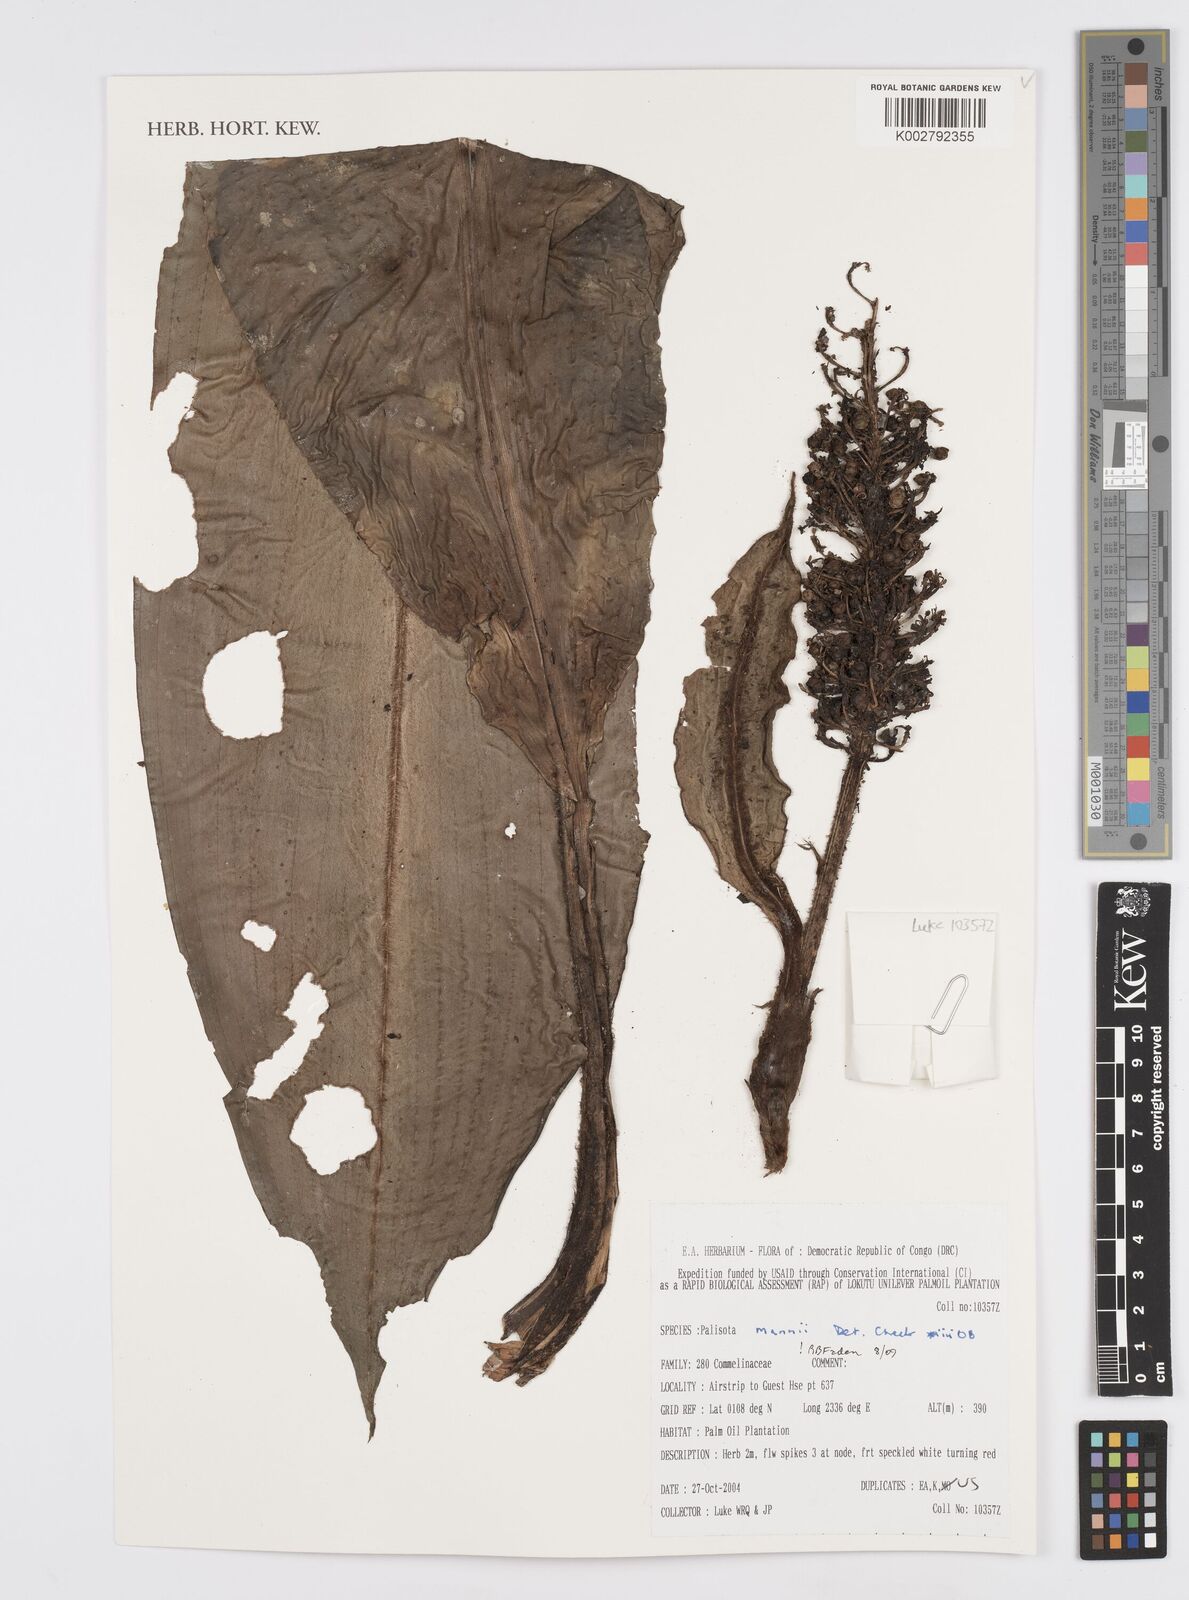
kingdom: Plantae
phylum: Tracheophyta
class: Liliopsida
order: Commelinales
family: Commelinaceae
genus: Palisota
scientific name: Palisota mannii
